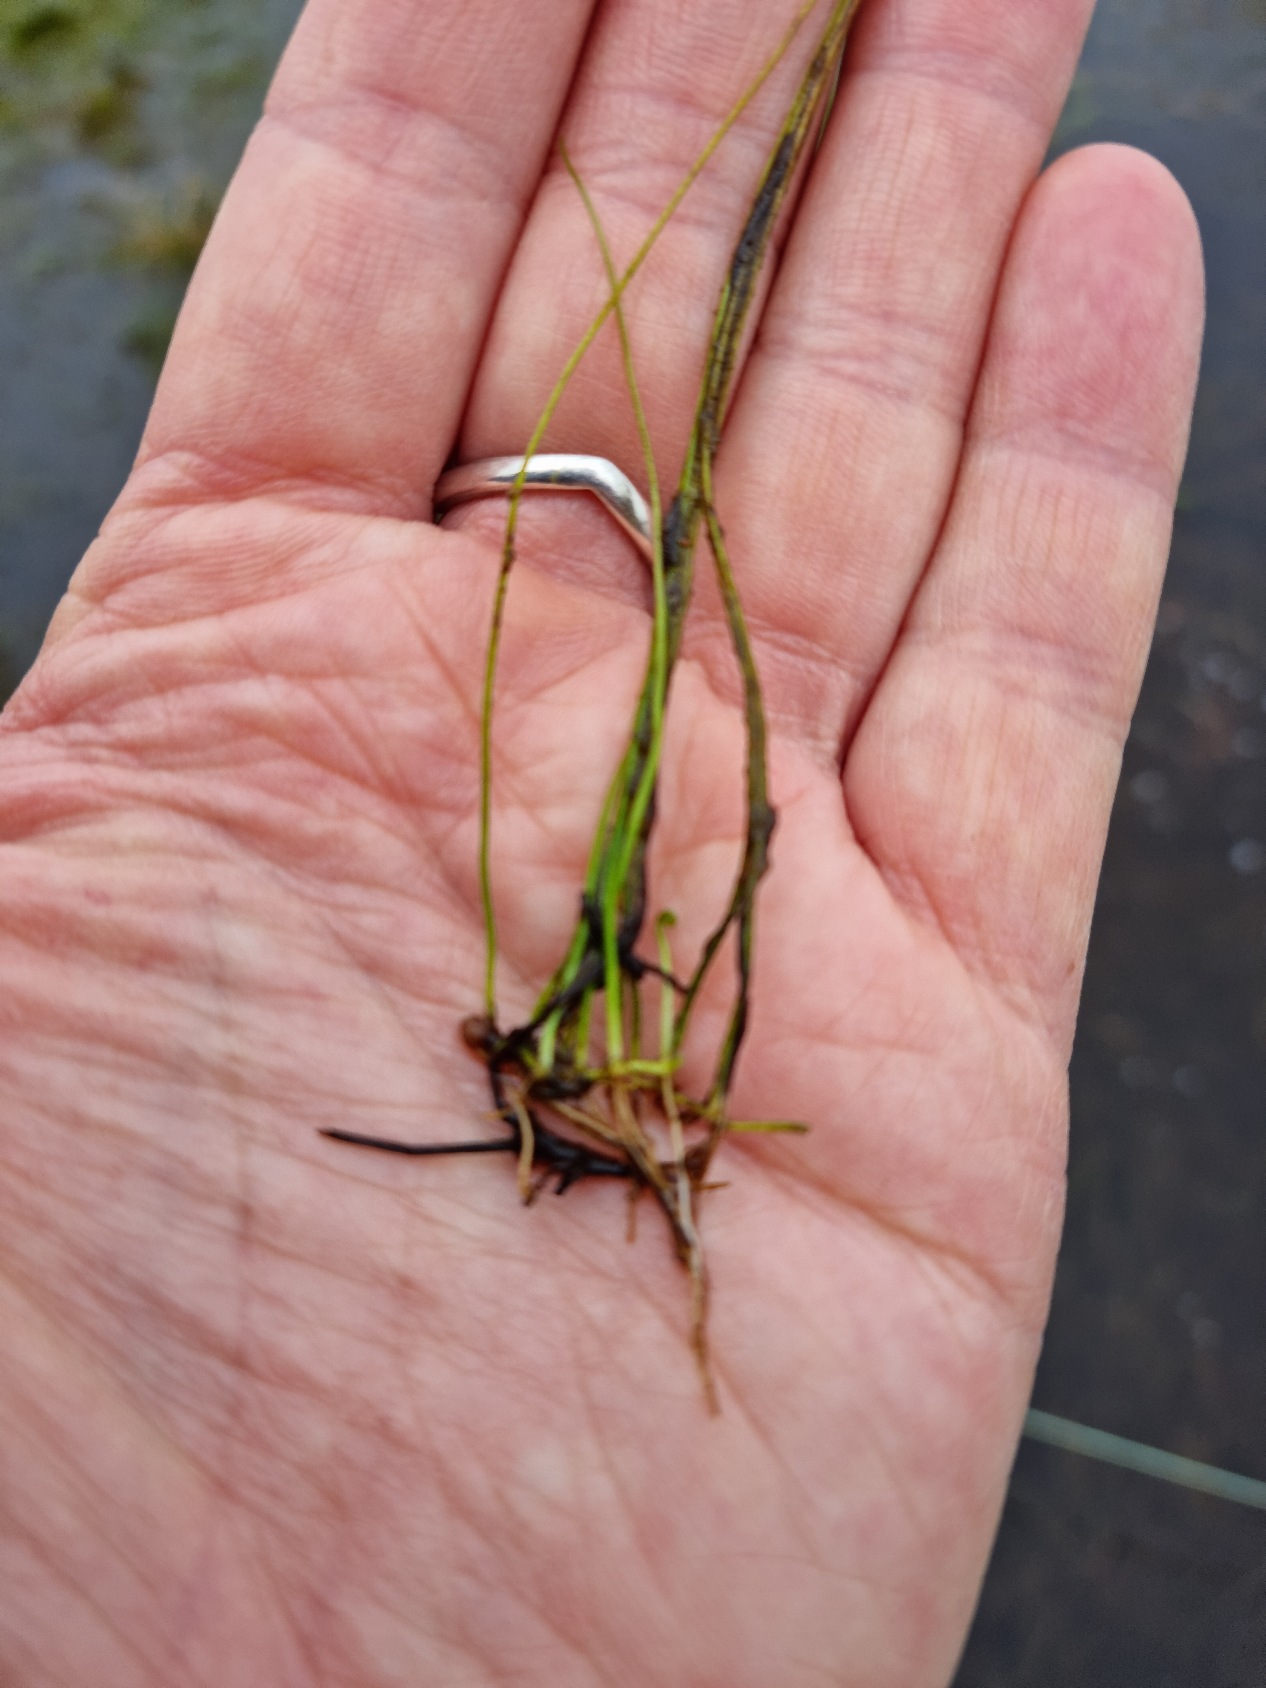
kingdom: Plantae
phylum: Tracheophyta
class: Polypodiopsida
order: Salviniales
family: Marsileaceae
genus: Pilularia
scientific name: Pilularia globulifera
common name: Pilledrager
